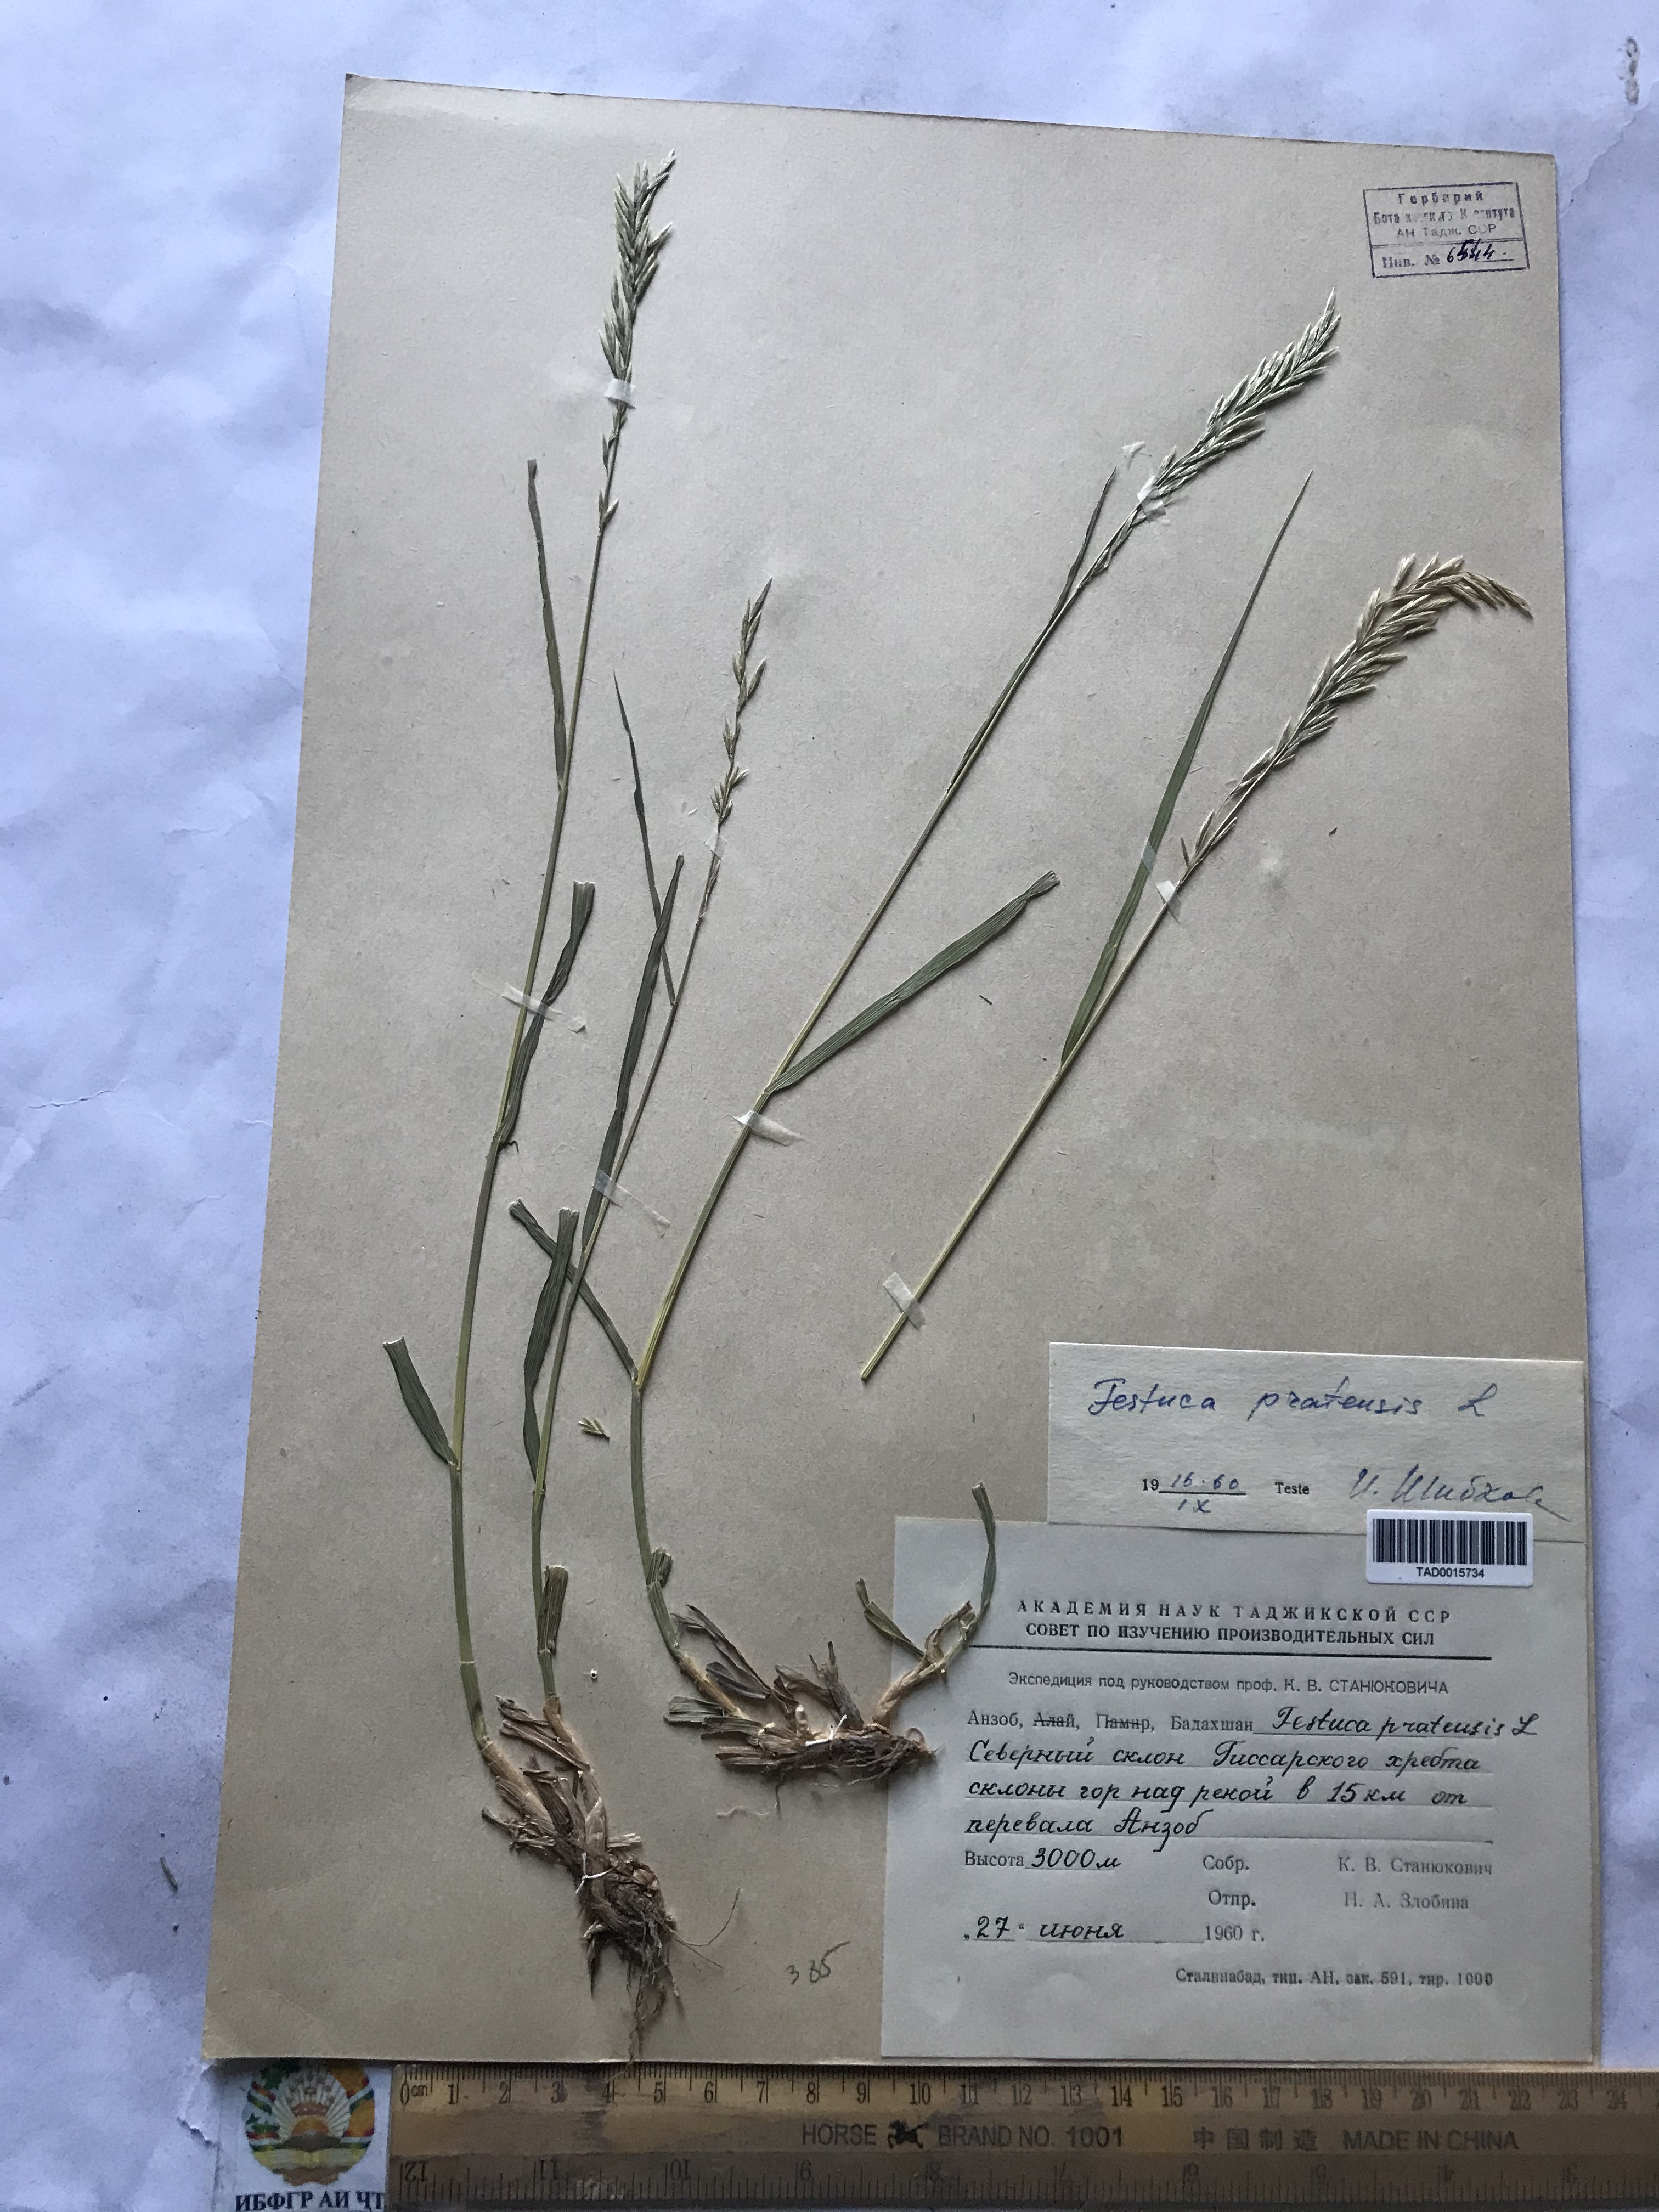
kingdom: Plantae
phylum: Tracheophyta
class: Liliopsida
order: Poales
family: Poaceae
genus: Lolium
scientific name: Lolium pratense
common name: Dover grass
